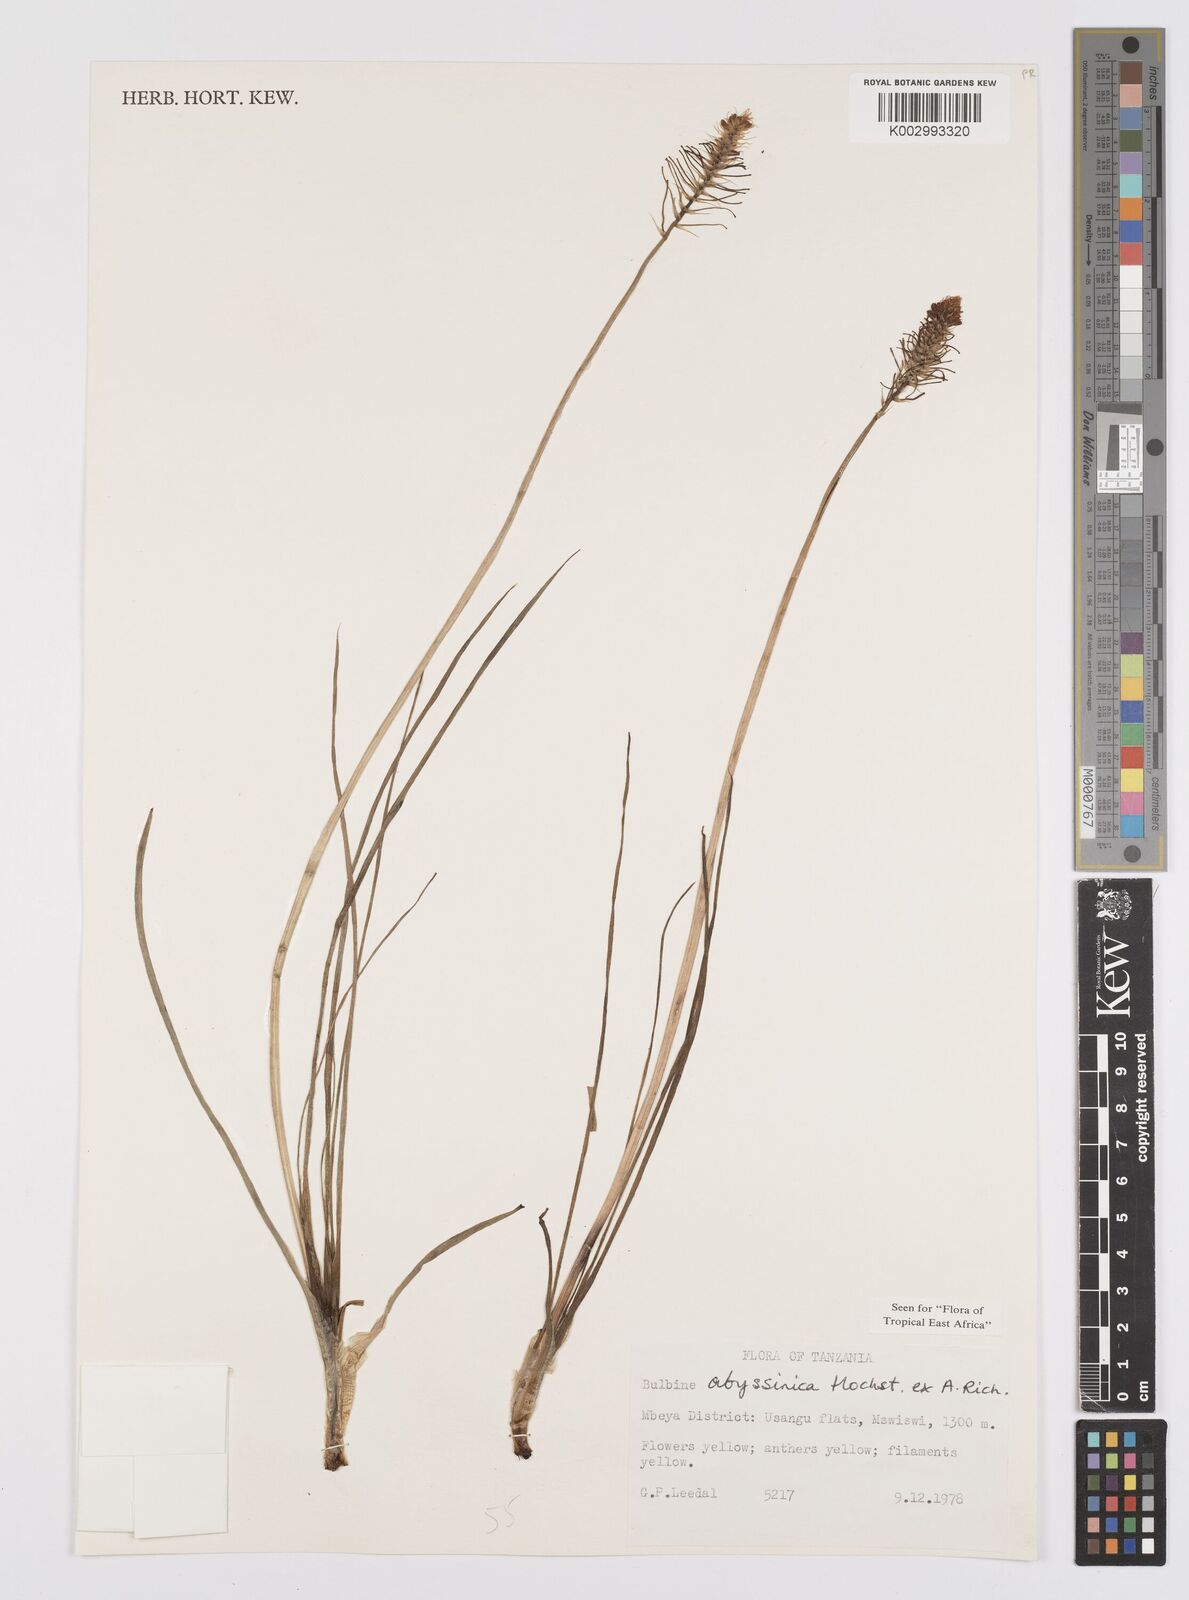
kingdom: Plantae
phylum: Tracheophyta
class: Liliopsida
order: Asparagales
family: Asphodelaceae
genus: Bulbine
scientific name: Bulbine abyssinica
